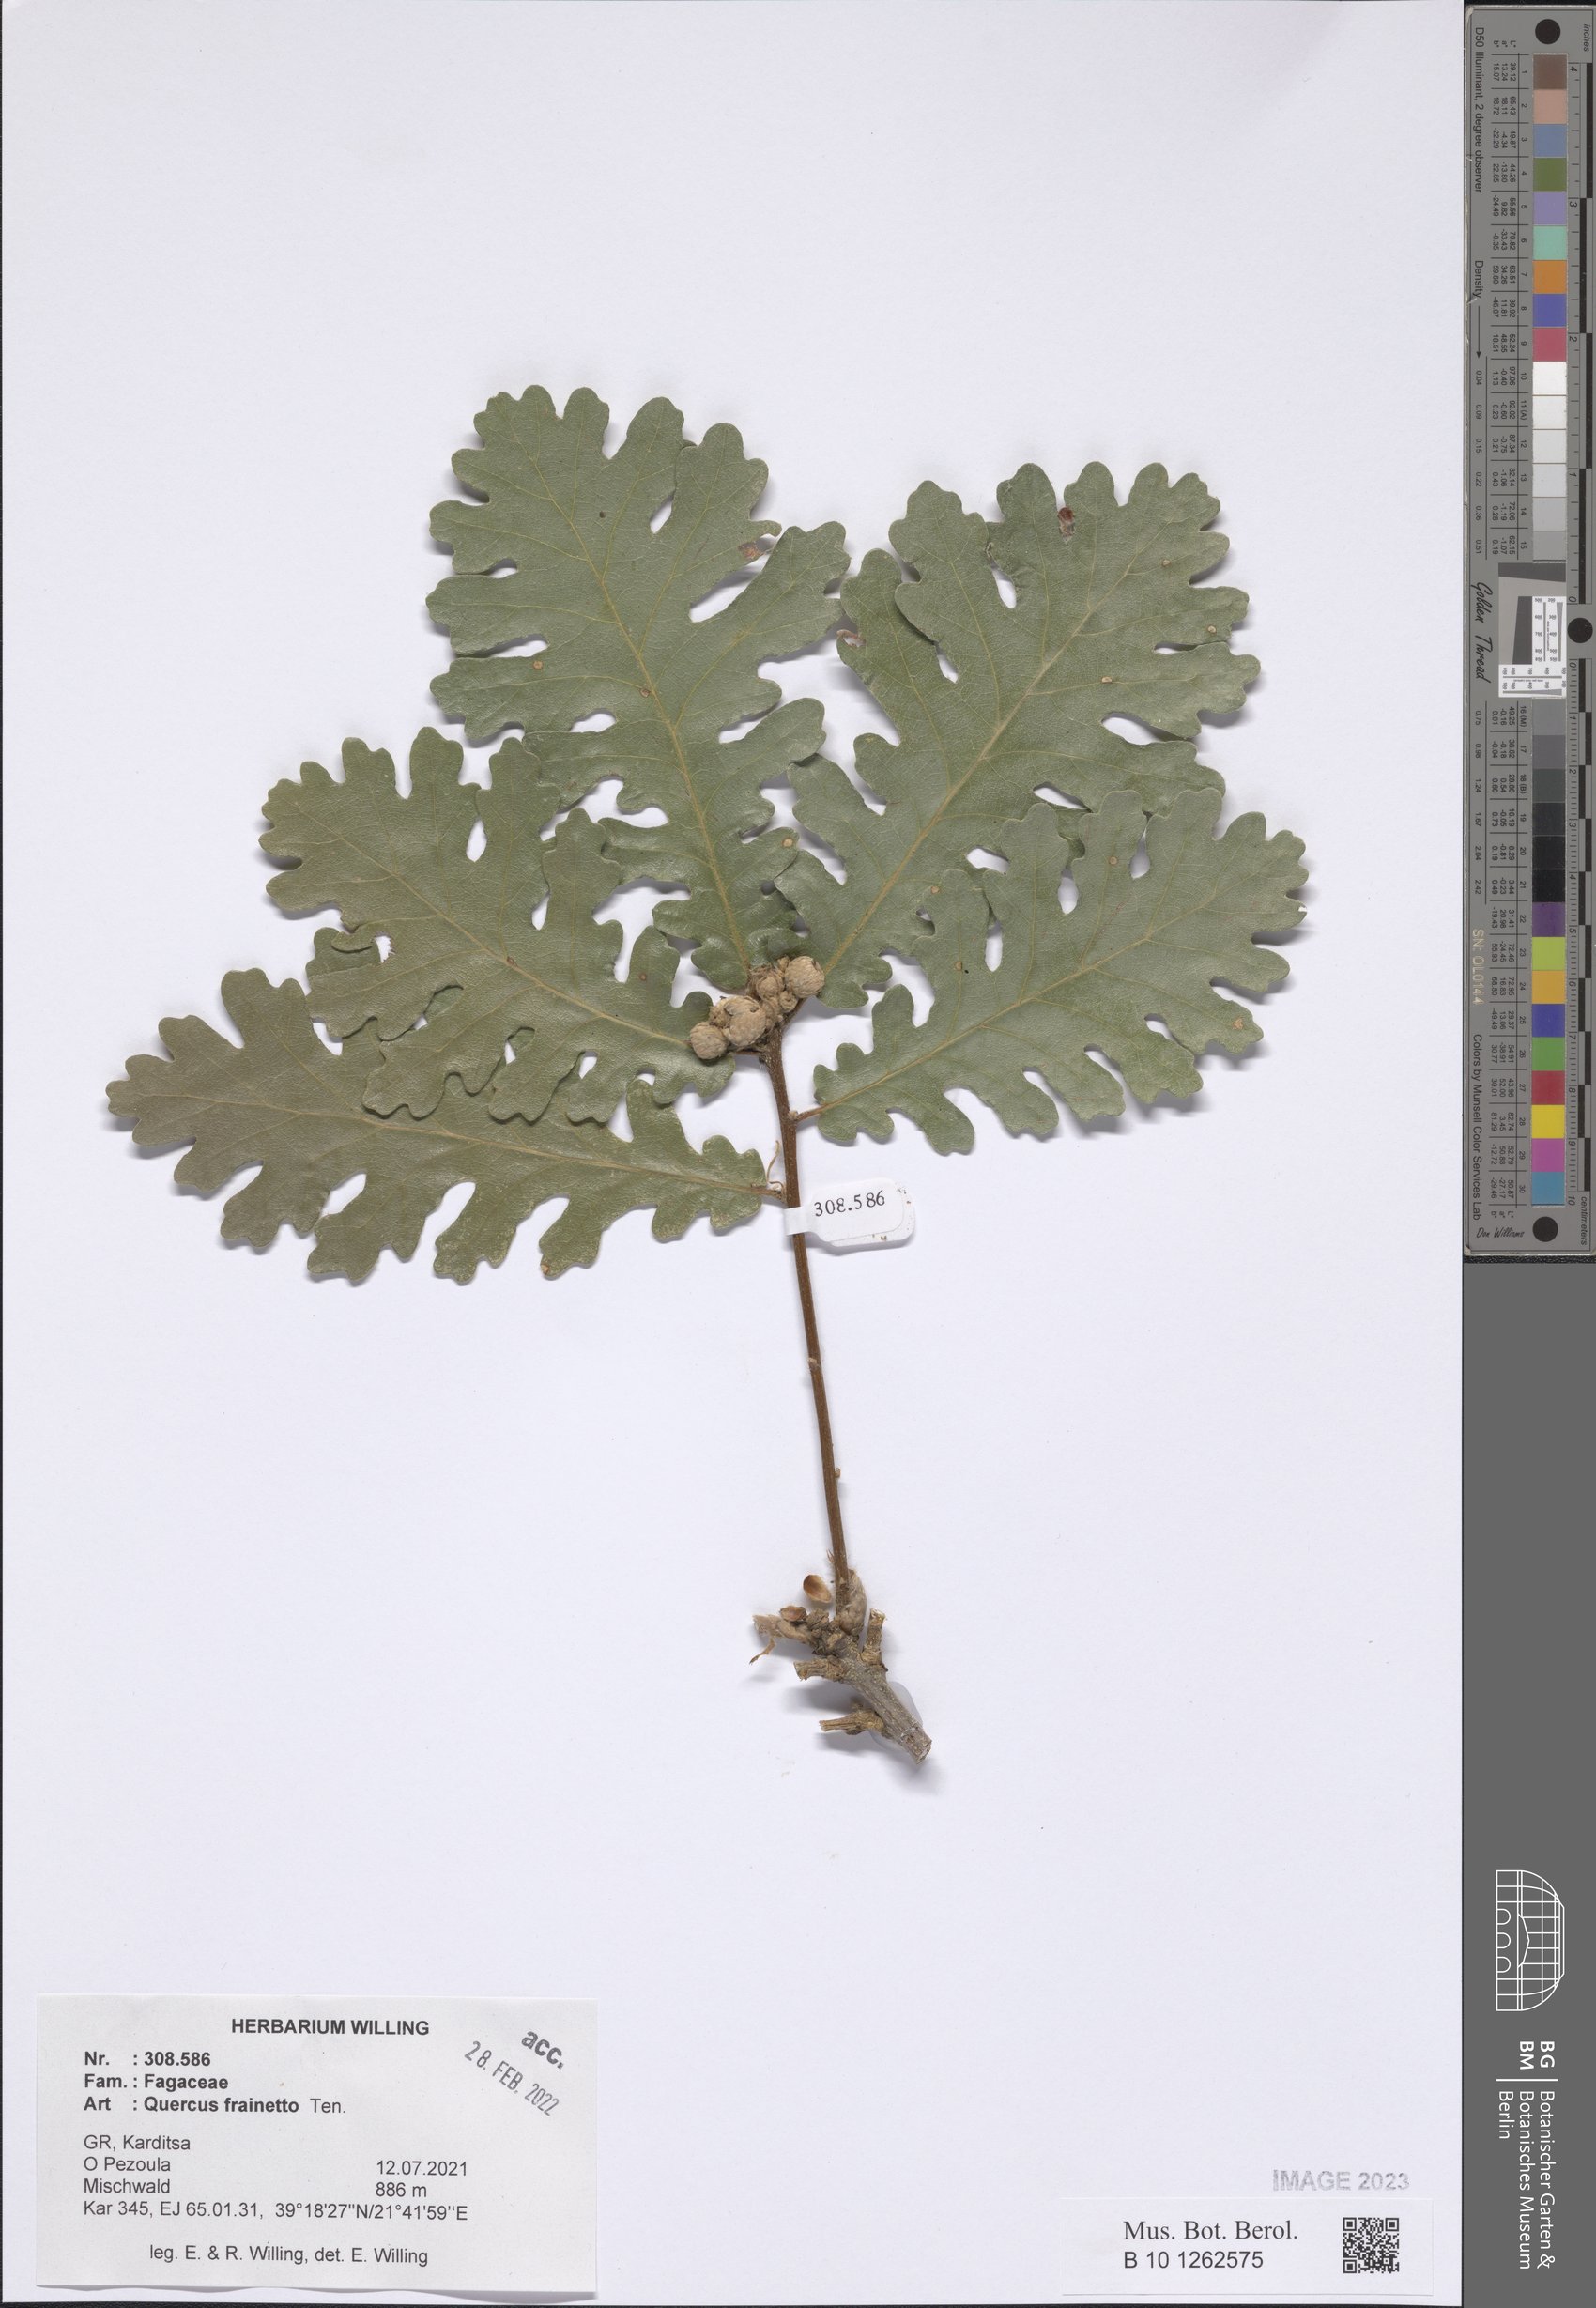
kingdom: Plantae
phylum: Tracheophyta
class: Magnoliopsida
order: Fagales
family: Fagaceae
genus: Quercus
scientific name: Quercus conferta
